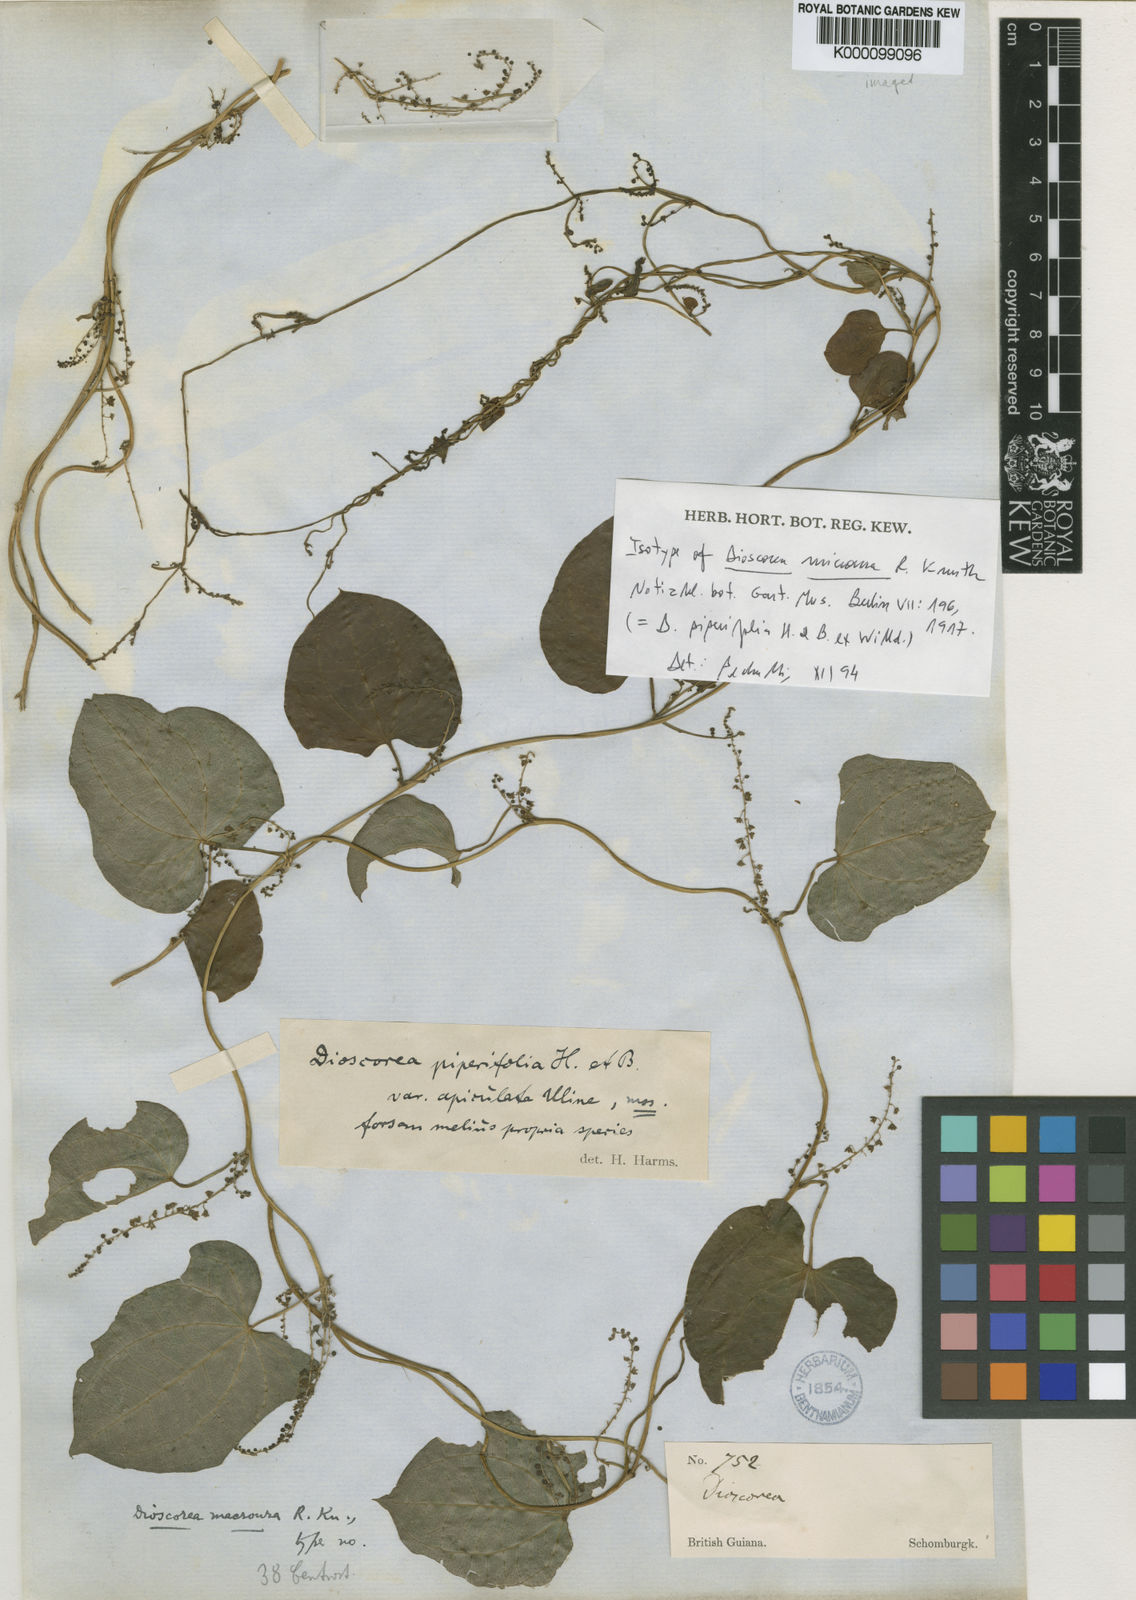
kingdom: Plantae
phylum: Tracheophyta
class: Liliopsida
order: Dioscoreales
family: Dioscoreaceae
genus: Dioscorea
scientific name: Dioscorea piperifolia
